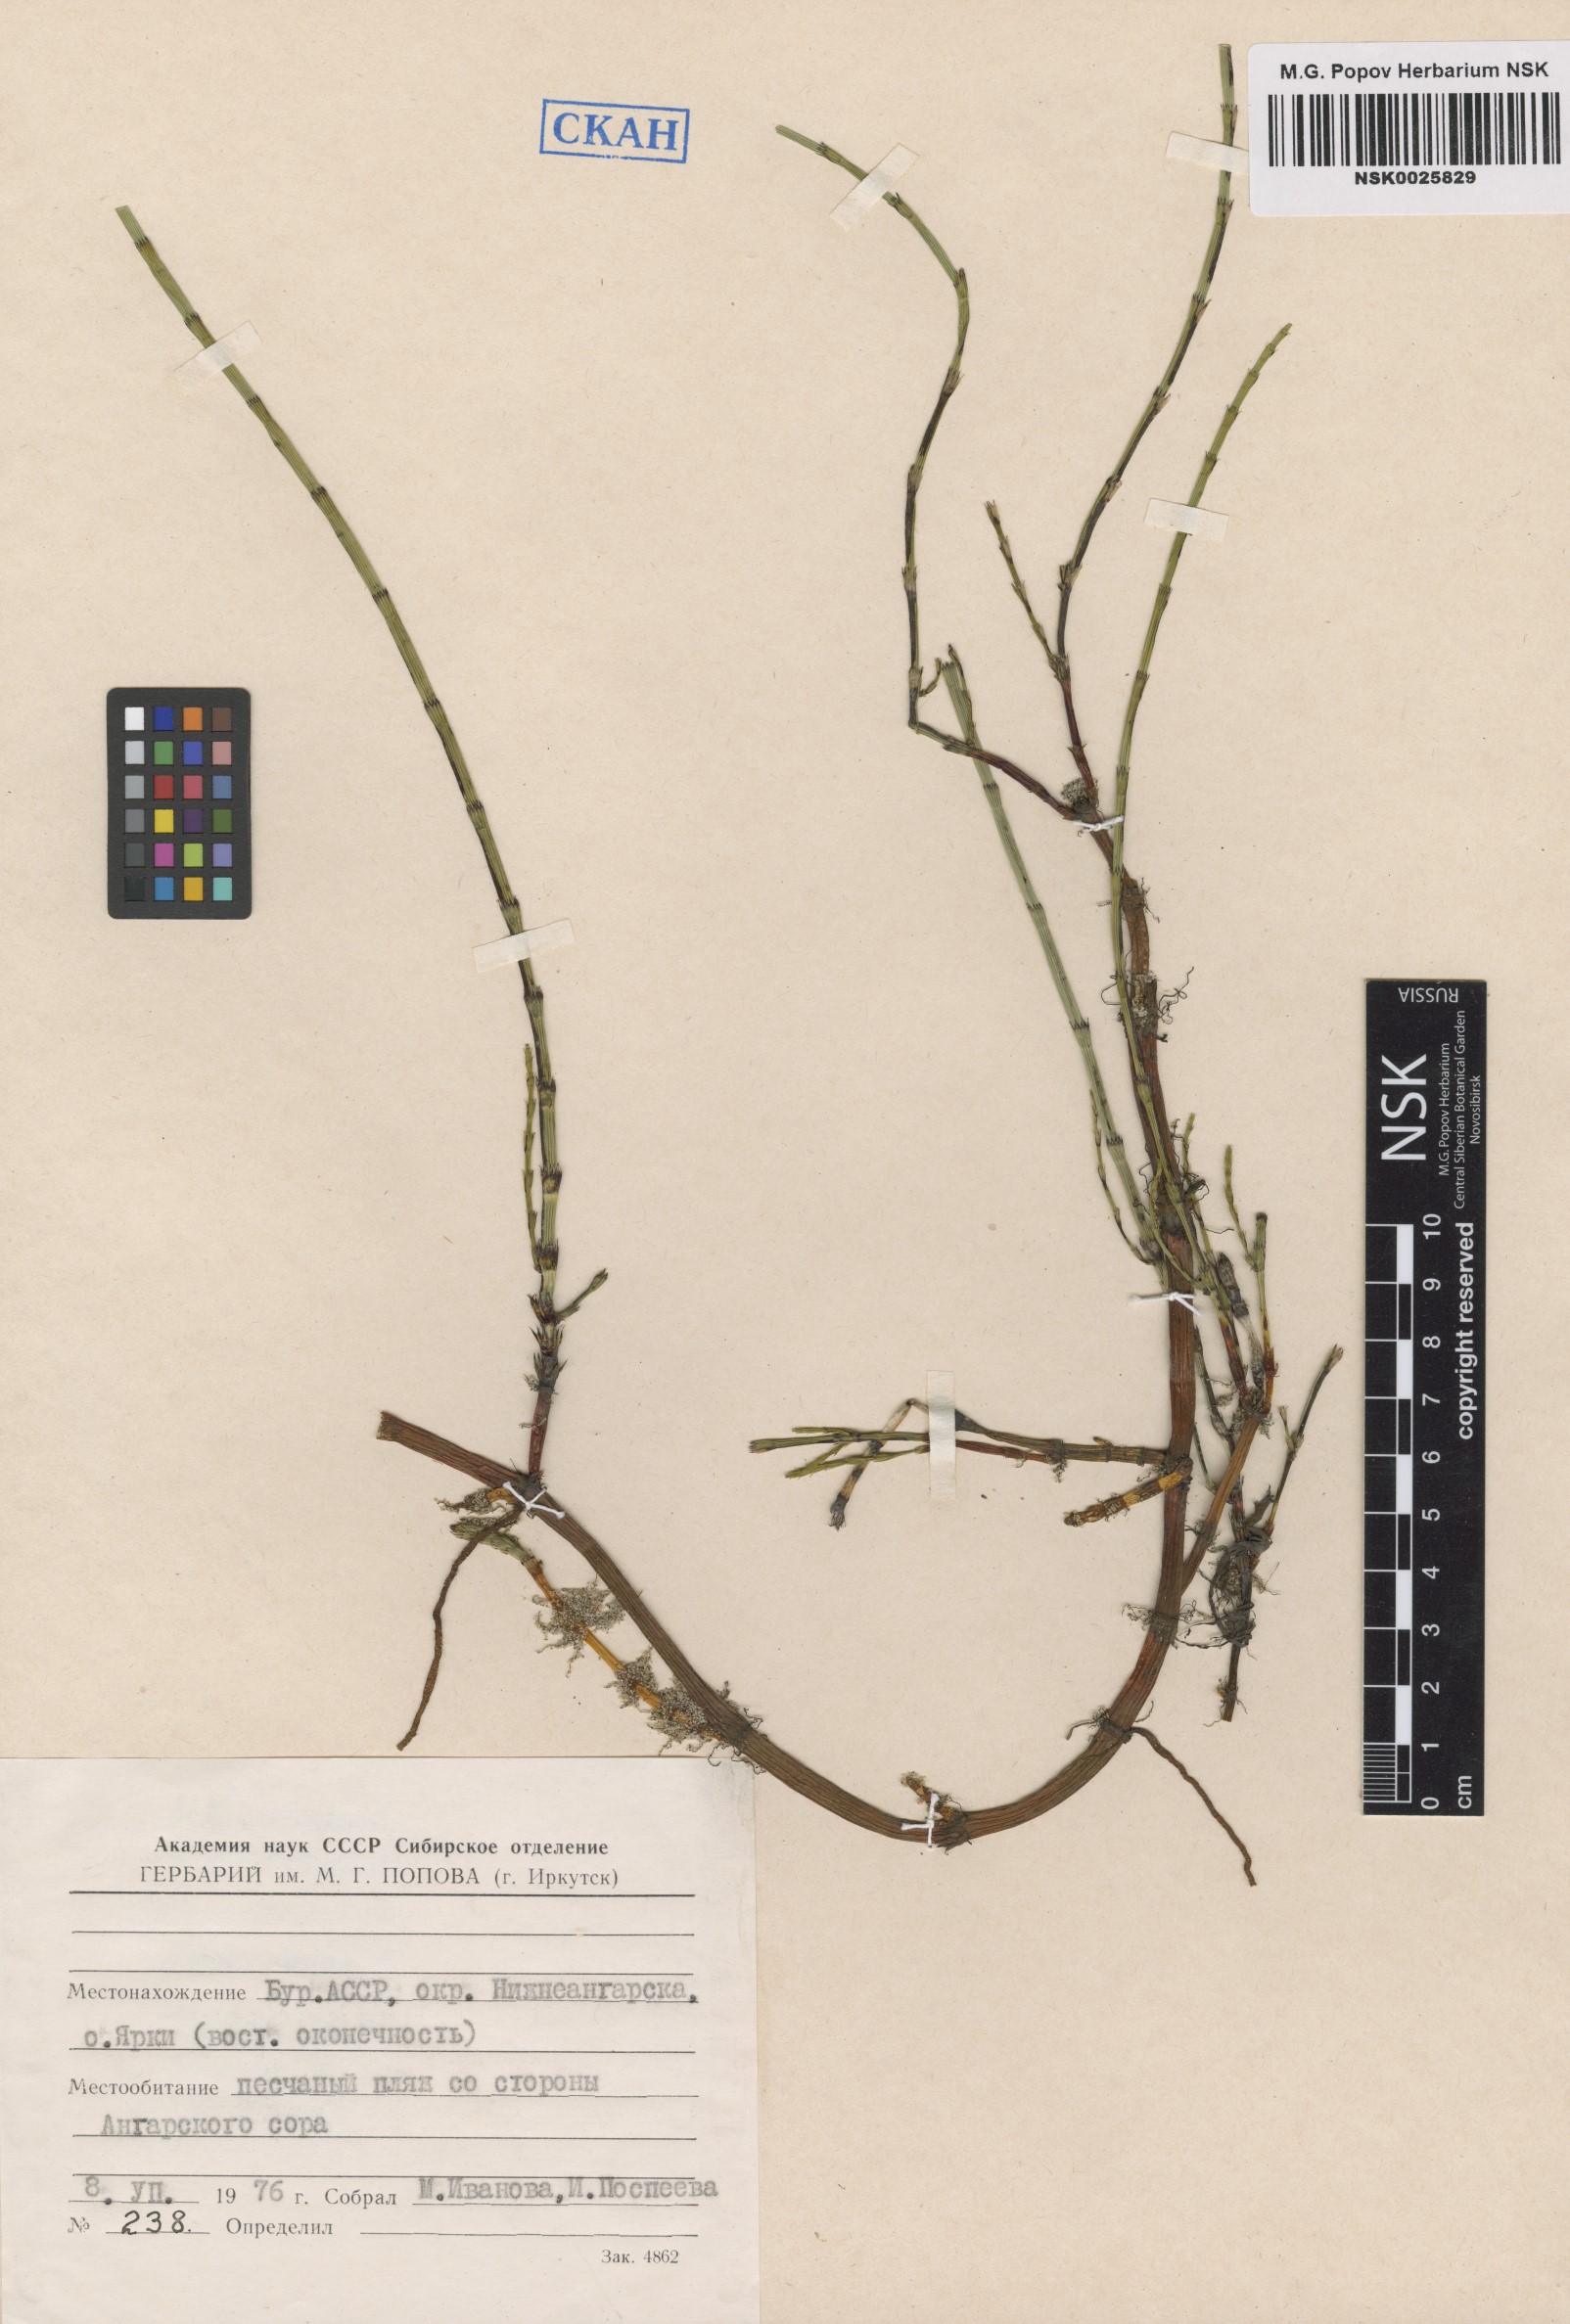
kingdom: Plantae
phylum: Tracheophyta
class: Polypodiopsida
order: Equisetales
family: Equisetaceae
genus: Equisetum
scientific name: Equisetum palustre
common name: Marsh horsetail
